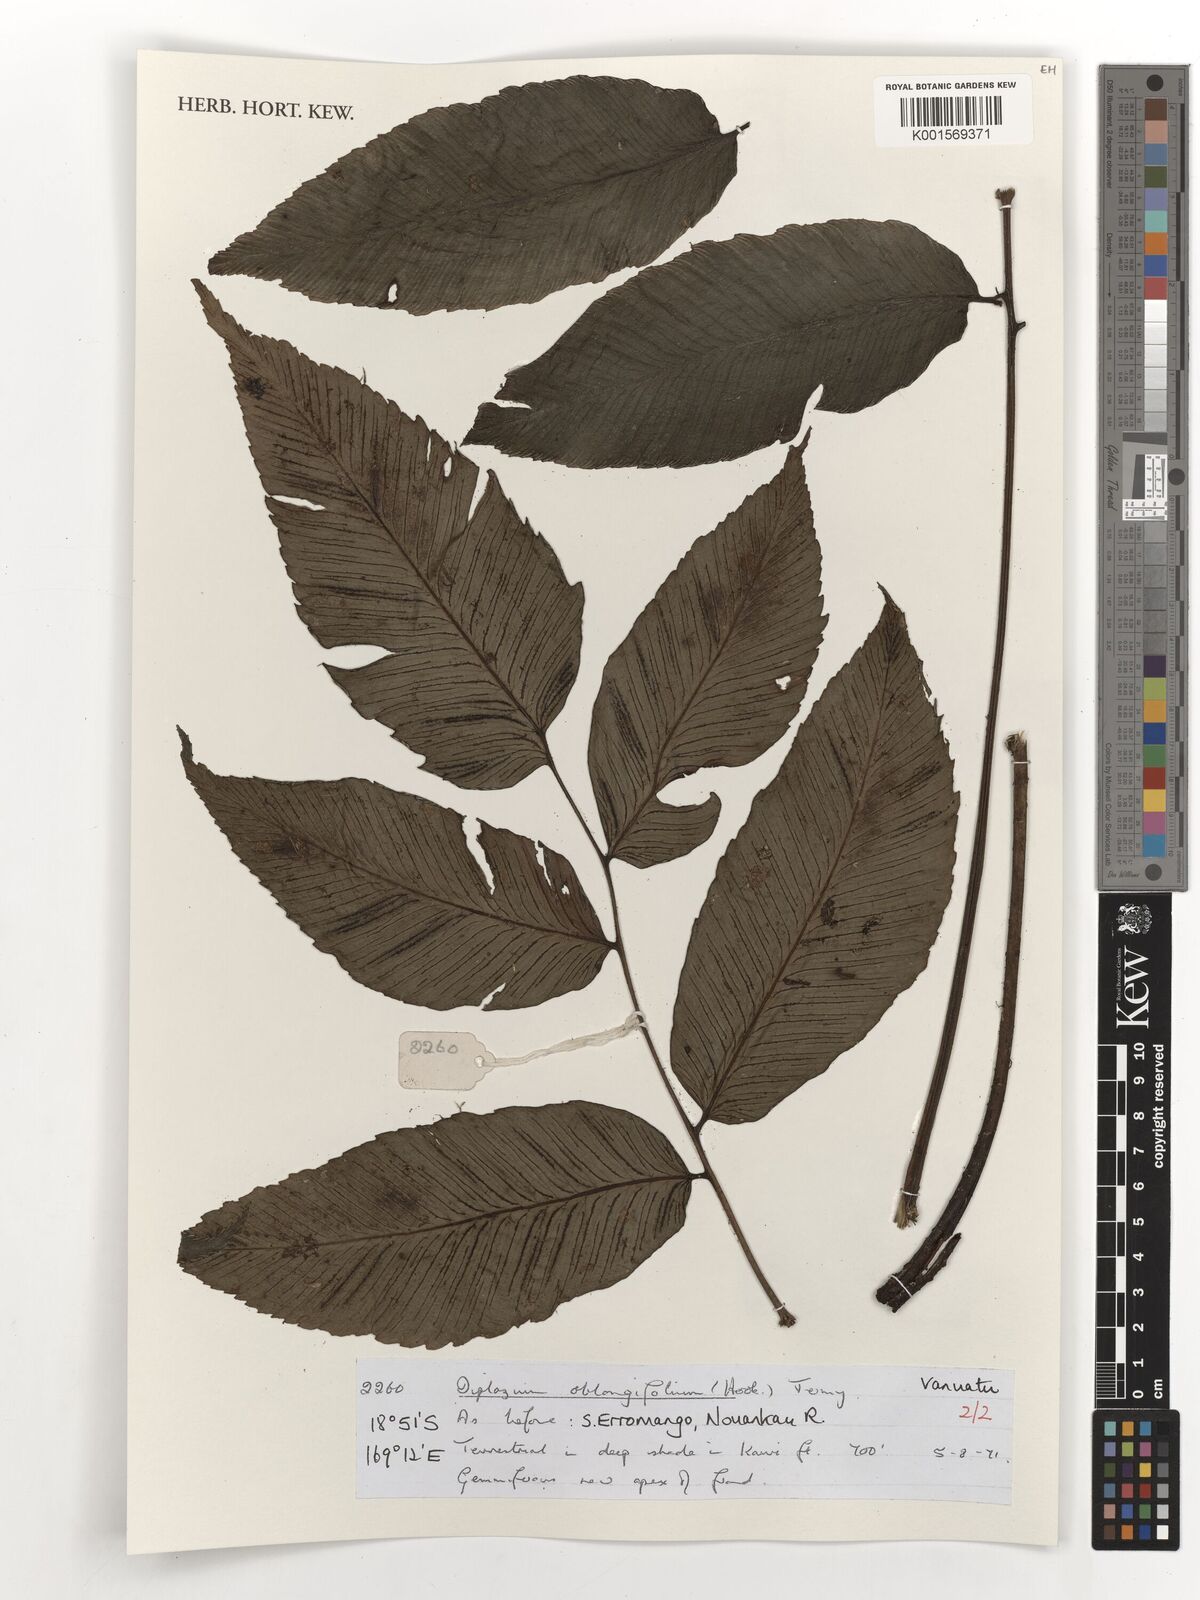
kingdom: Plantae
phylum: Tracheophyta
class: Polypodiopsida
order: Polypodiales
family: Athyriaceae
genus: Diplazium
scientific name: Diplazium oblongifolium
